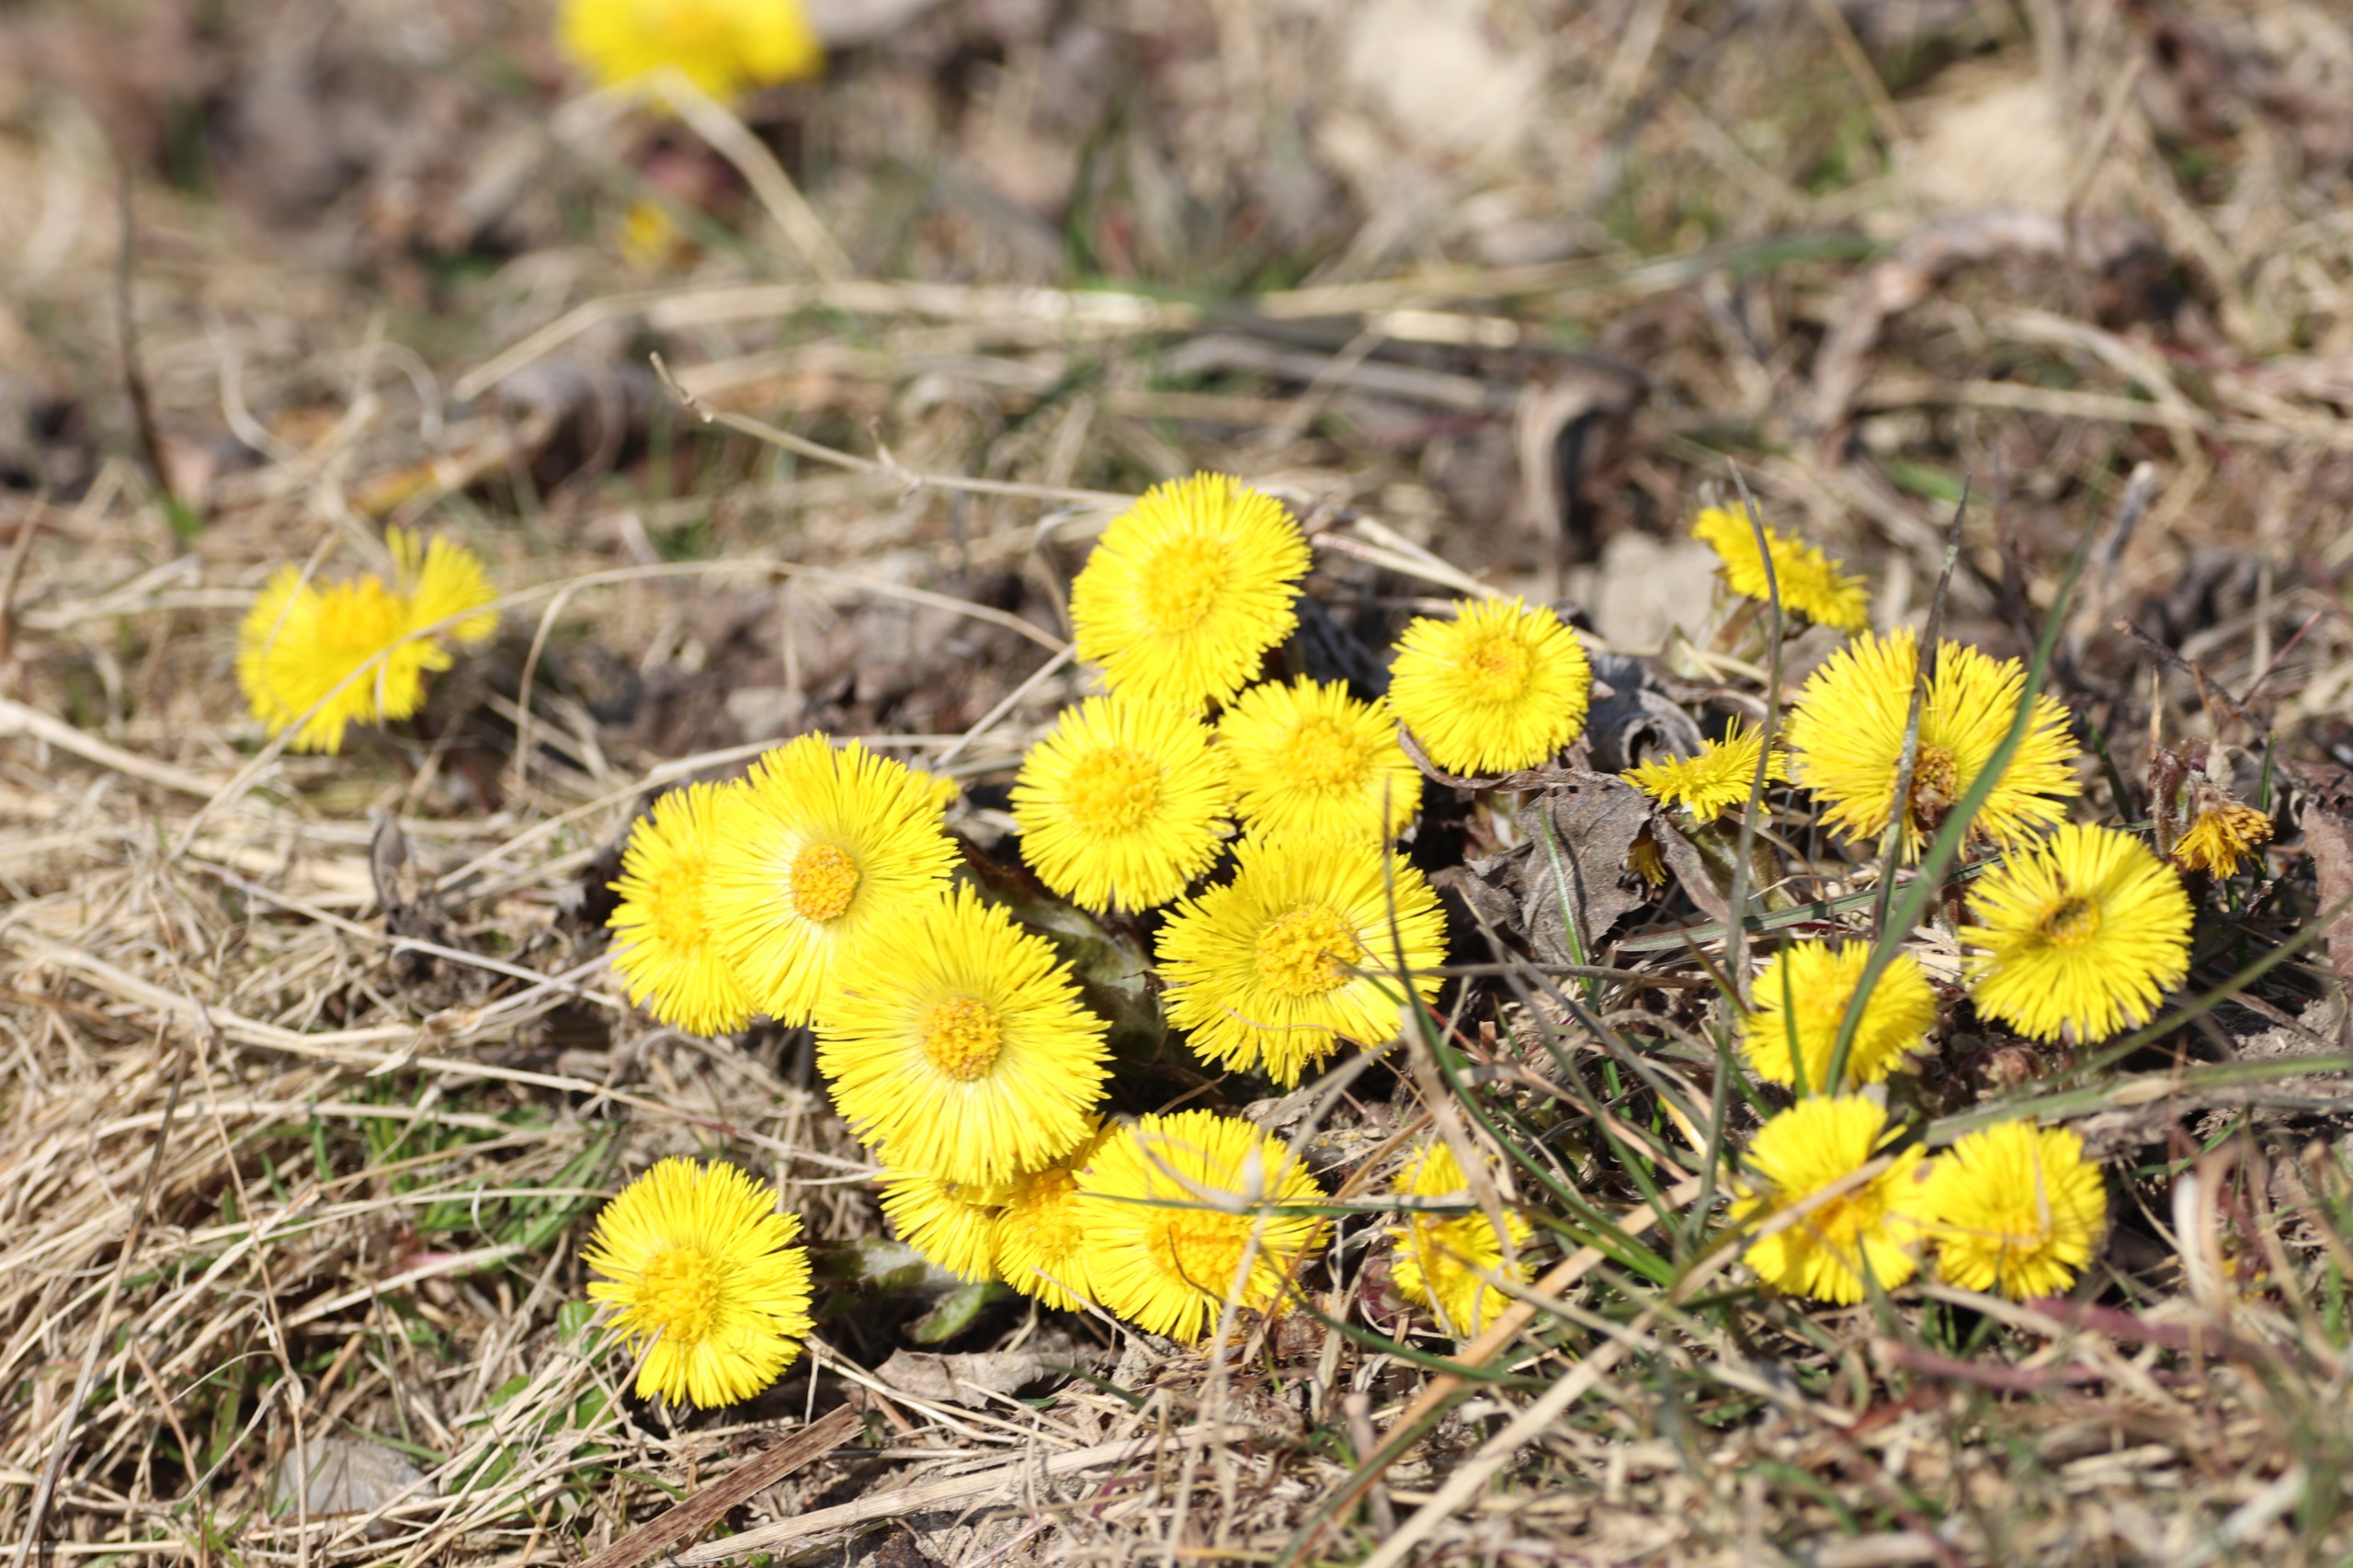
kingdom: Plantae
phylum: Tracheophyta
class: Magnoliopsida
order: Asterales
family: Asteraceae
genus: Tussilago
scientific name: Tussilago farfara
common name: Følfod
